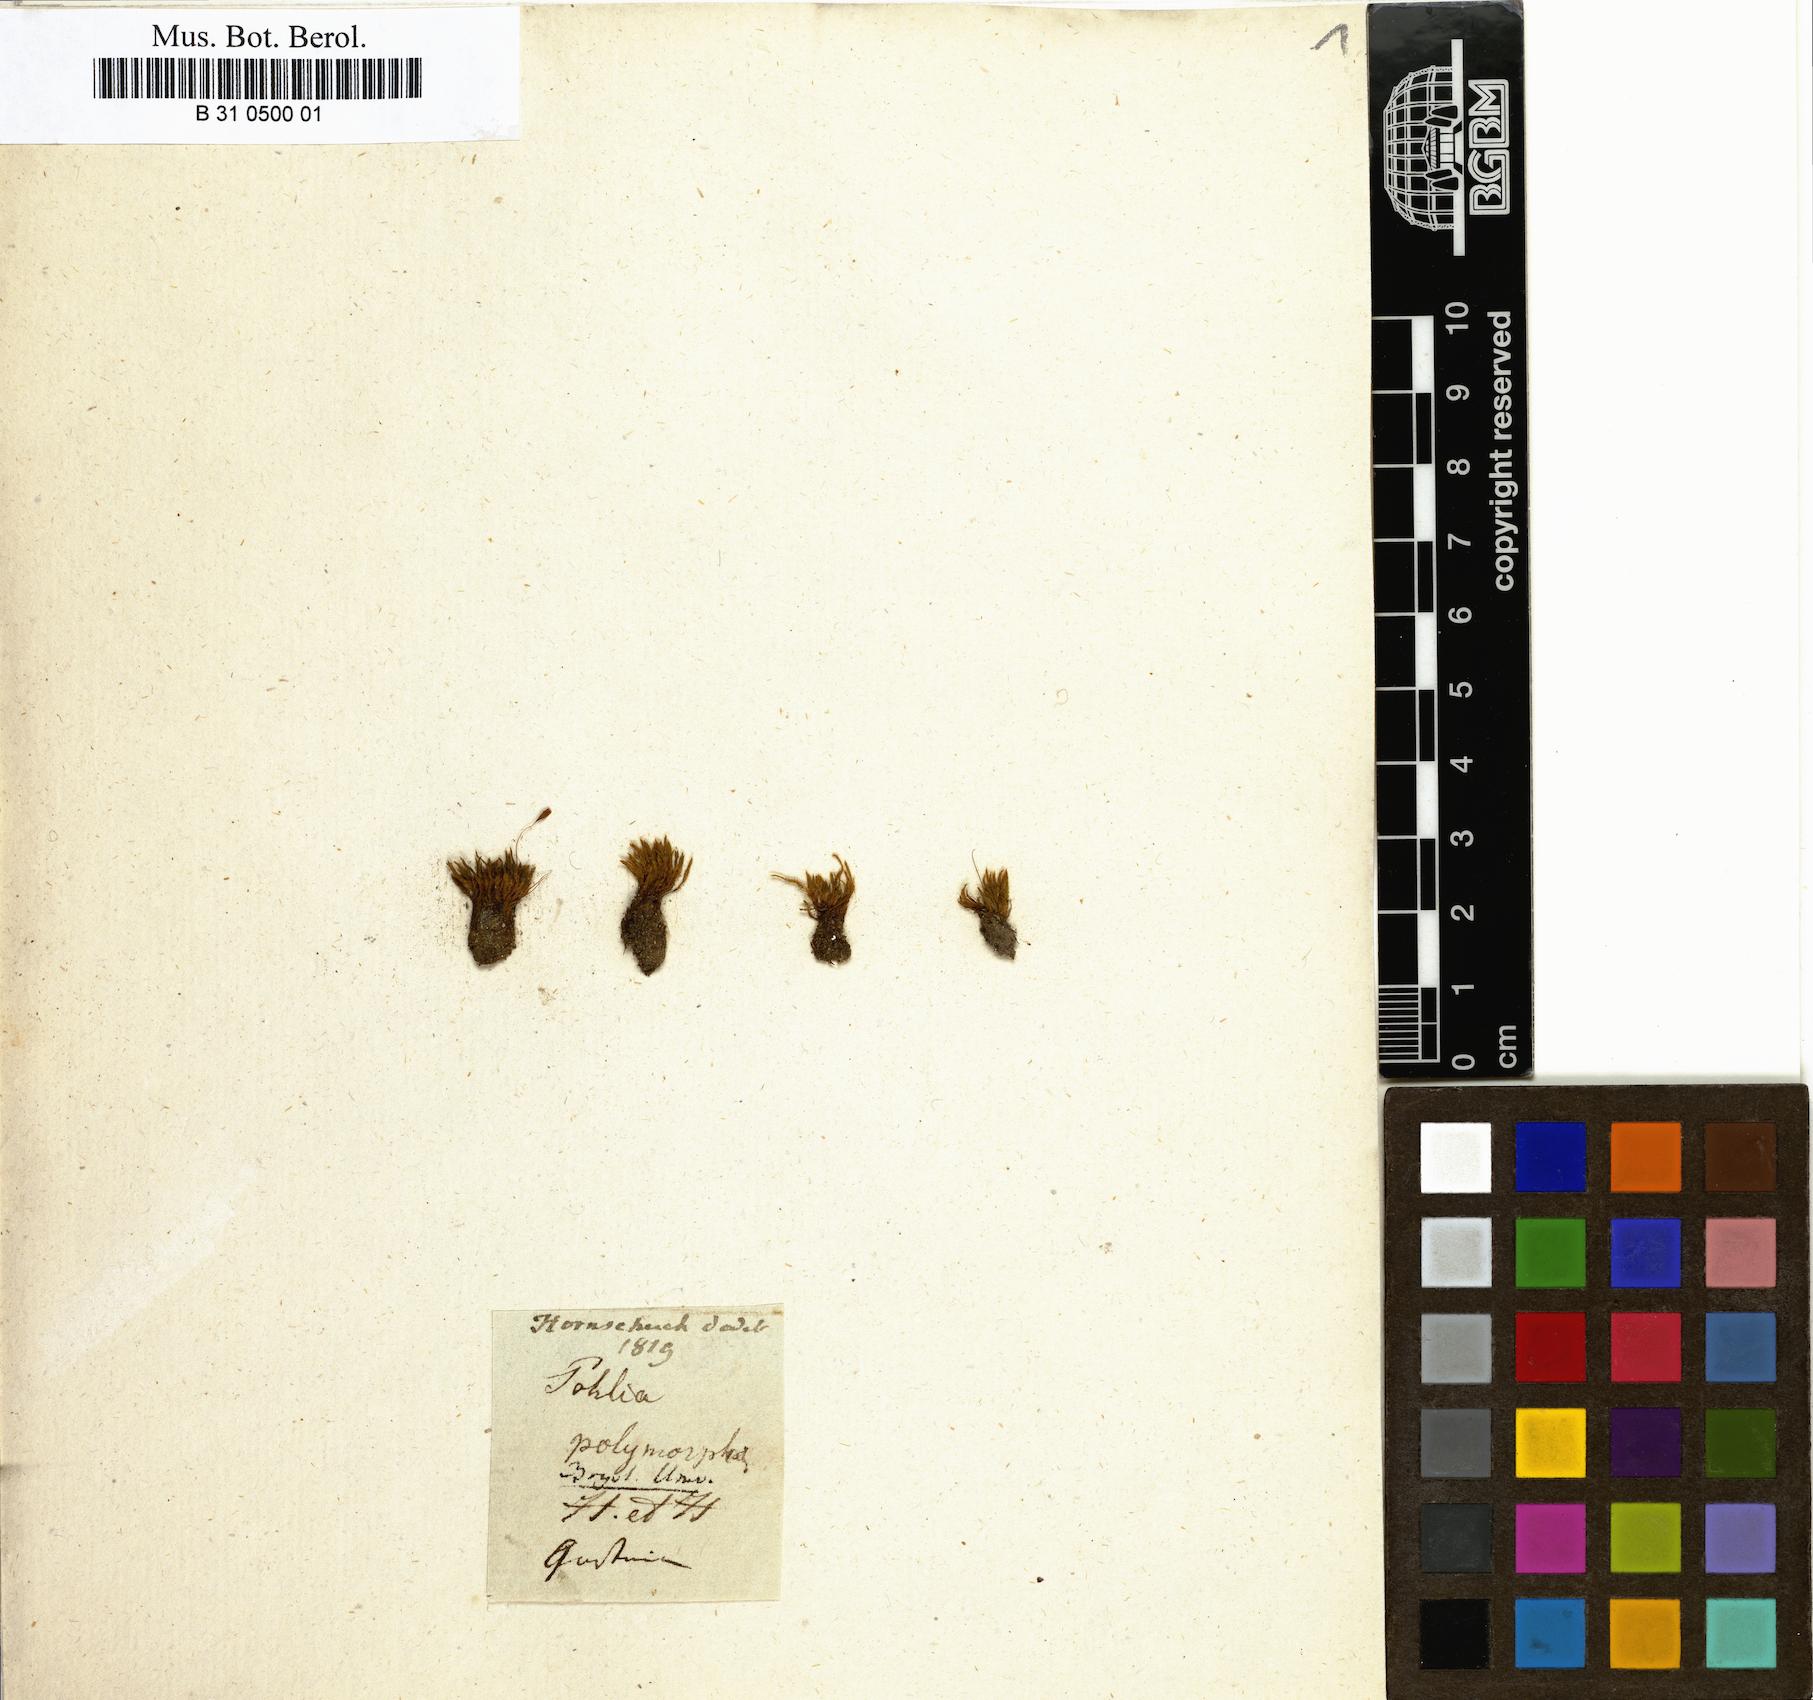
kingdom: Plantae
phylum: Bryophyta
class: Bryopsida
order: Bryales
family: Mniaceae
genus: Pohlia
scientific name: Pohlia elongata
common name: Long-fruited thread-moss
